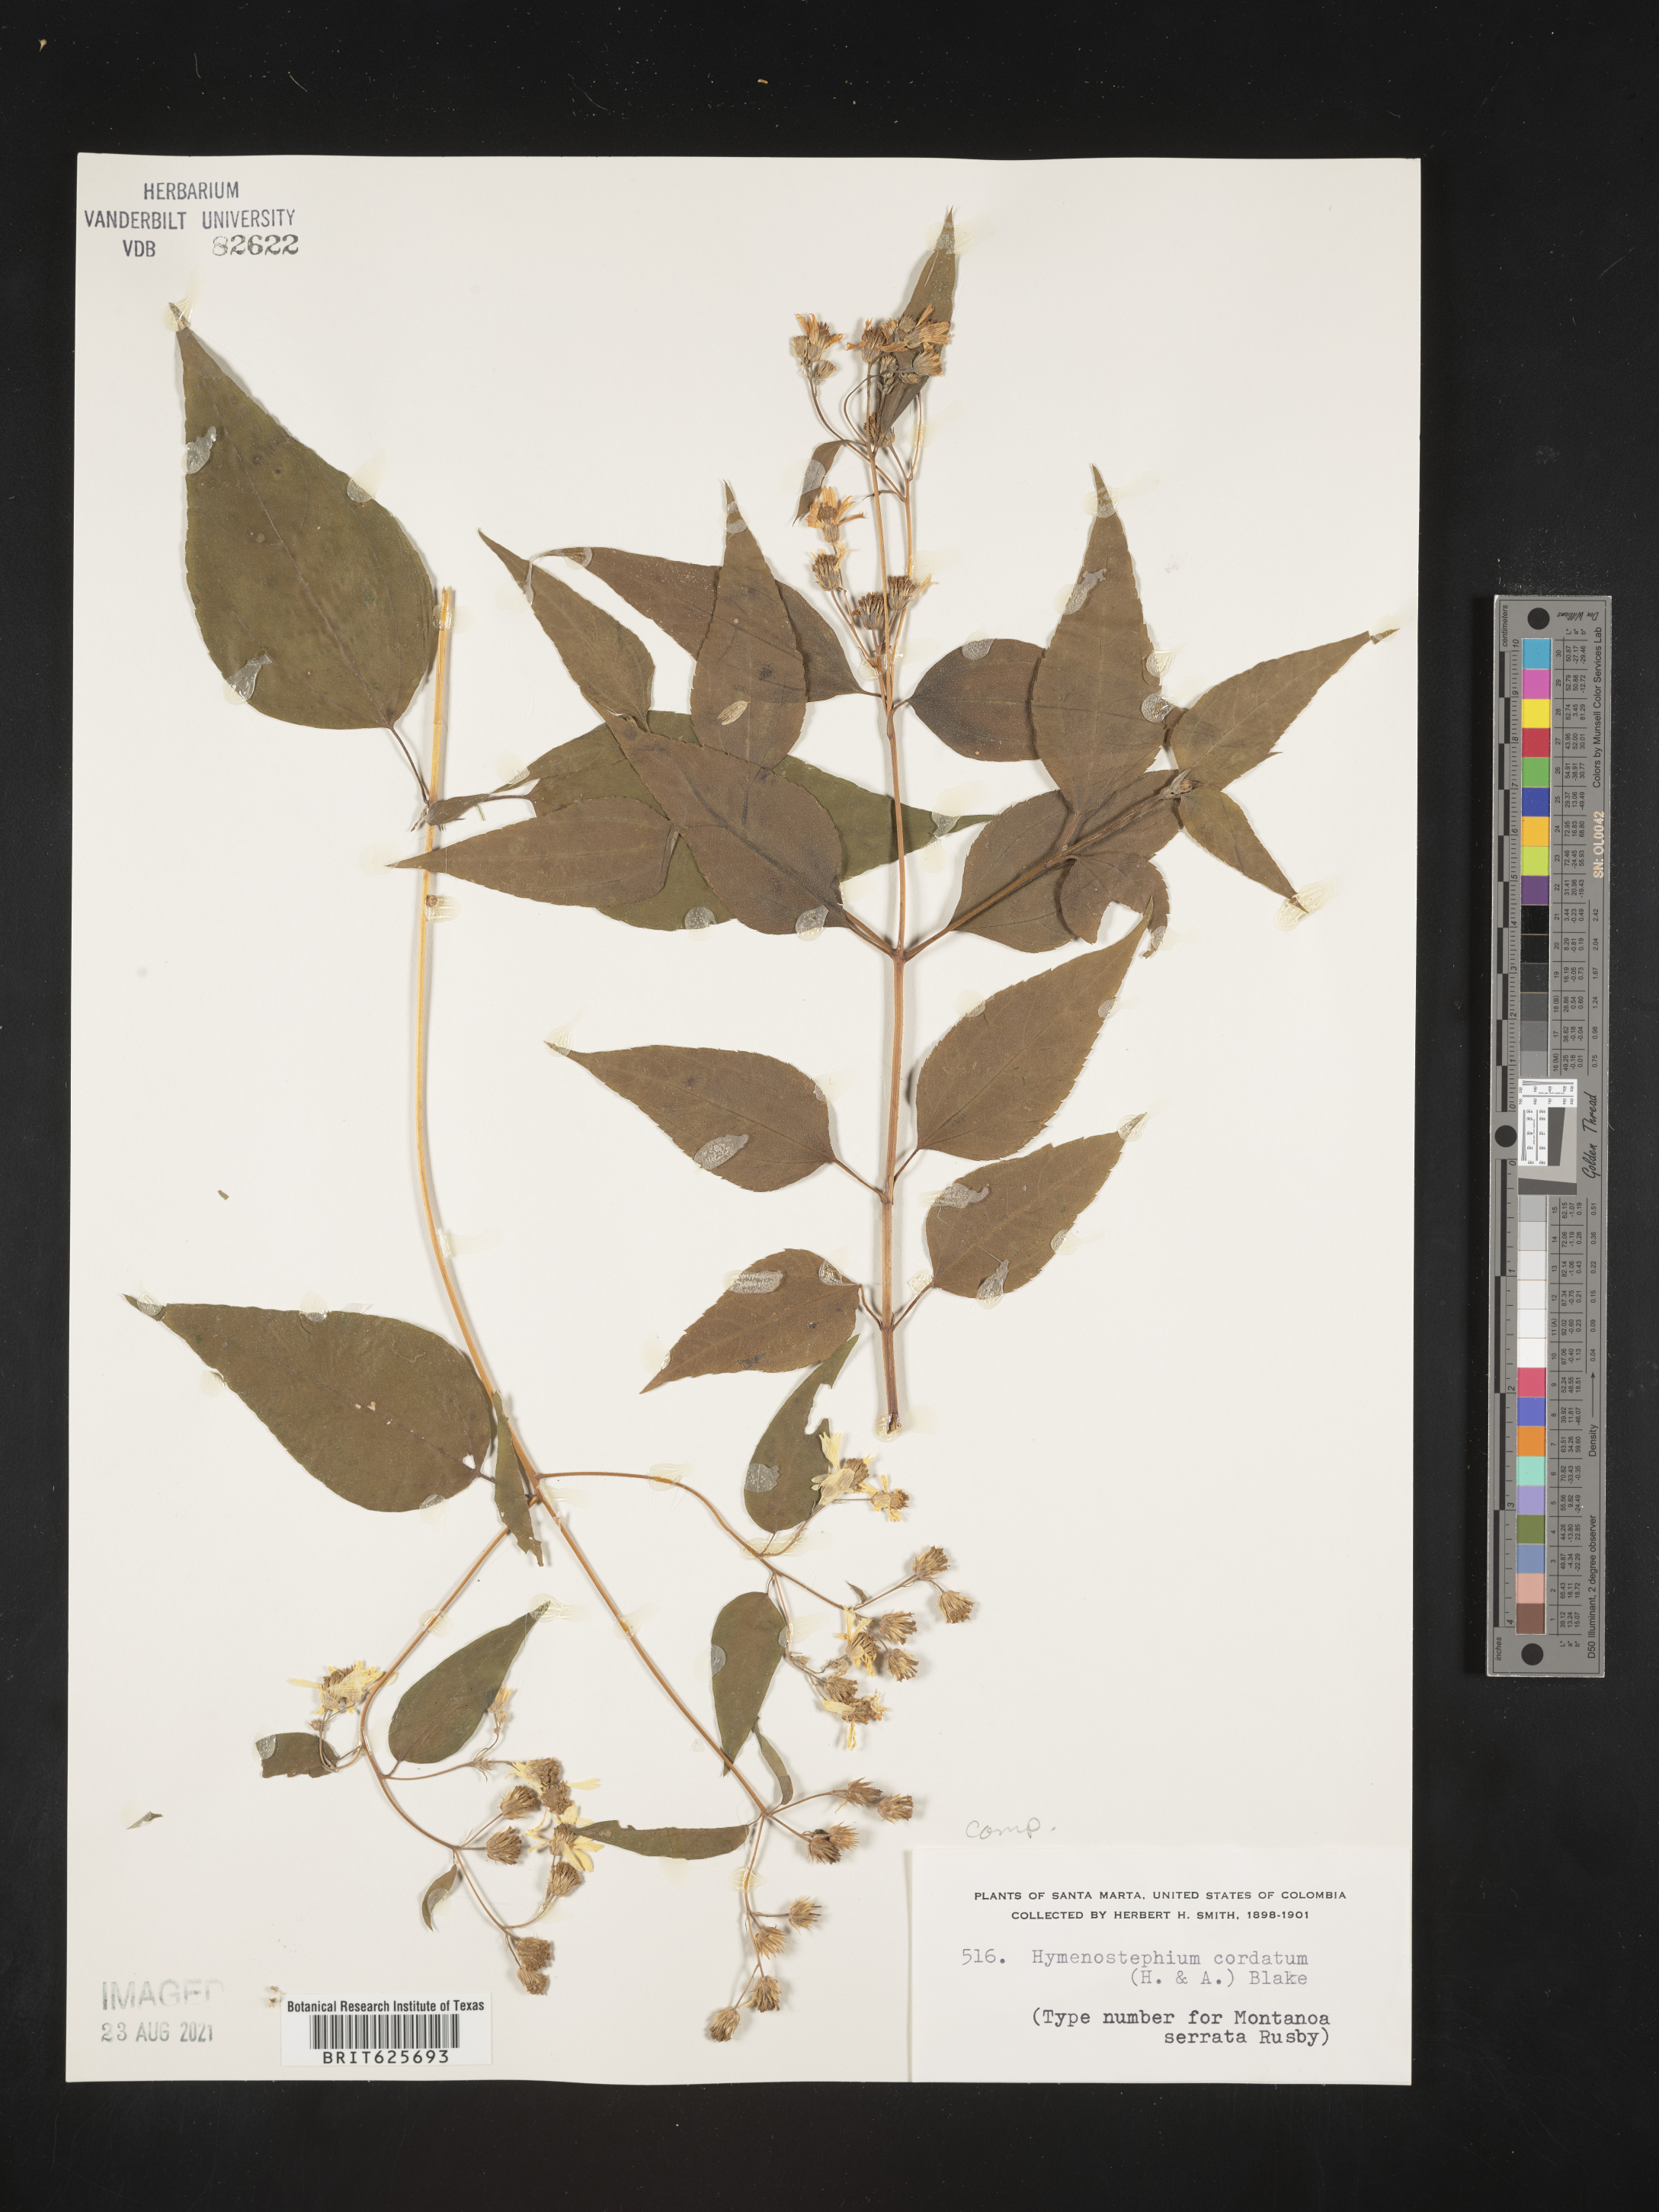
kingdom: Plantae
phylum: Tracheophyta
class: Magnoliopsida
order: Asterales
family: Asteraceae
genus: Hymenostephium
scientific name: Hymenostephium cordatum
